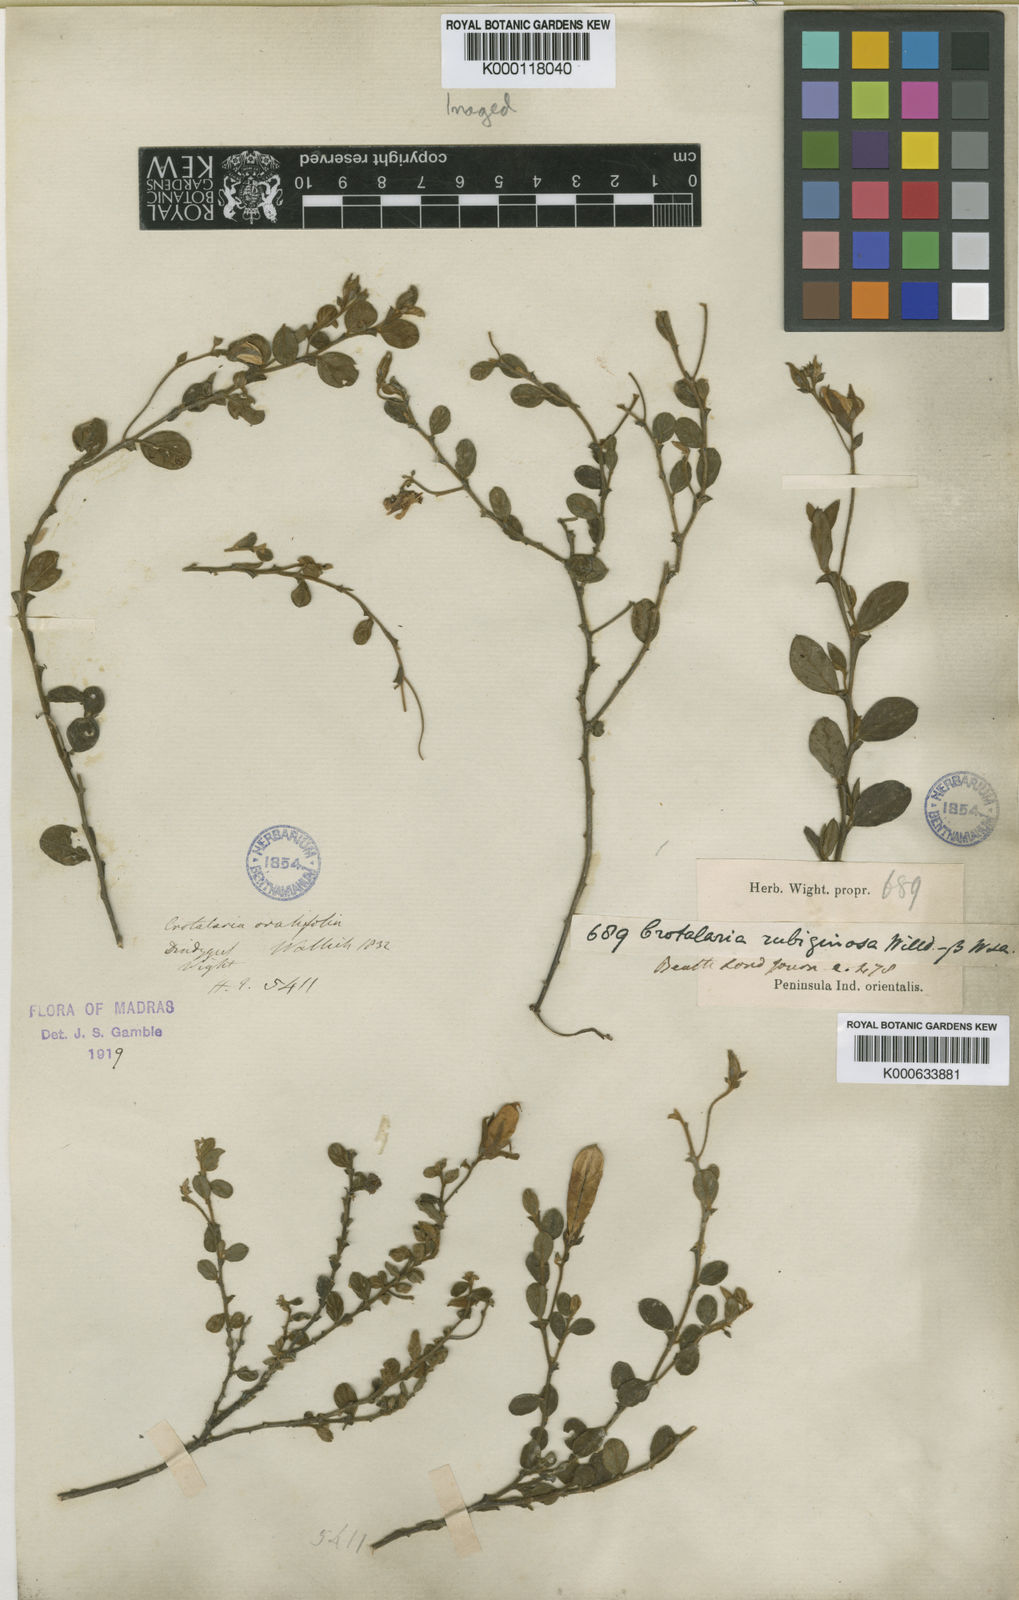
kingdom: Plantae
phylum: Tracheophyta
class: Magnoliopsida
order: Fabales
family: Fabaceae
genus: Crotalaria
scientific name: Crotalaria
